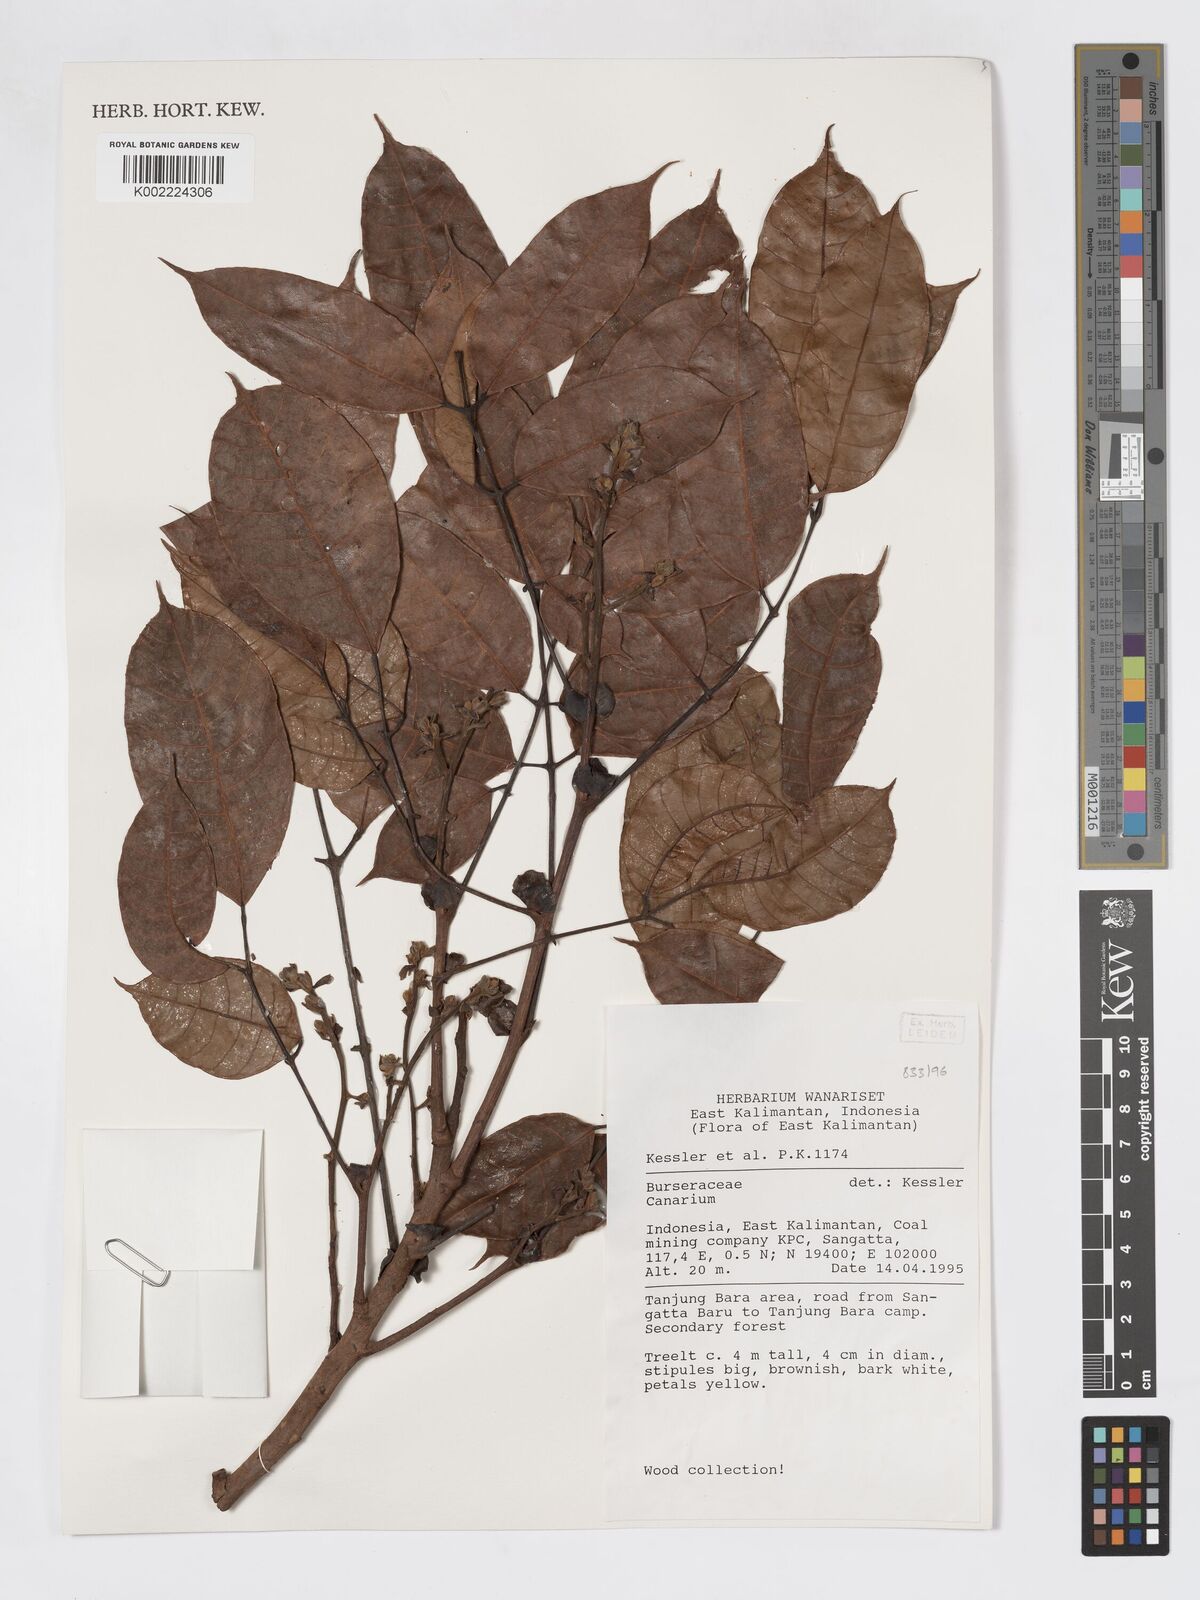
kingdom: Plantae
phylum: Tracheophyta
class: Magnoliopsida
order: Sapindales
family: Burseraceae
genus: Canarium
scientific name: Canarium
